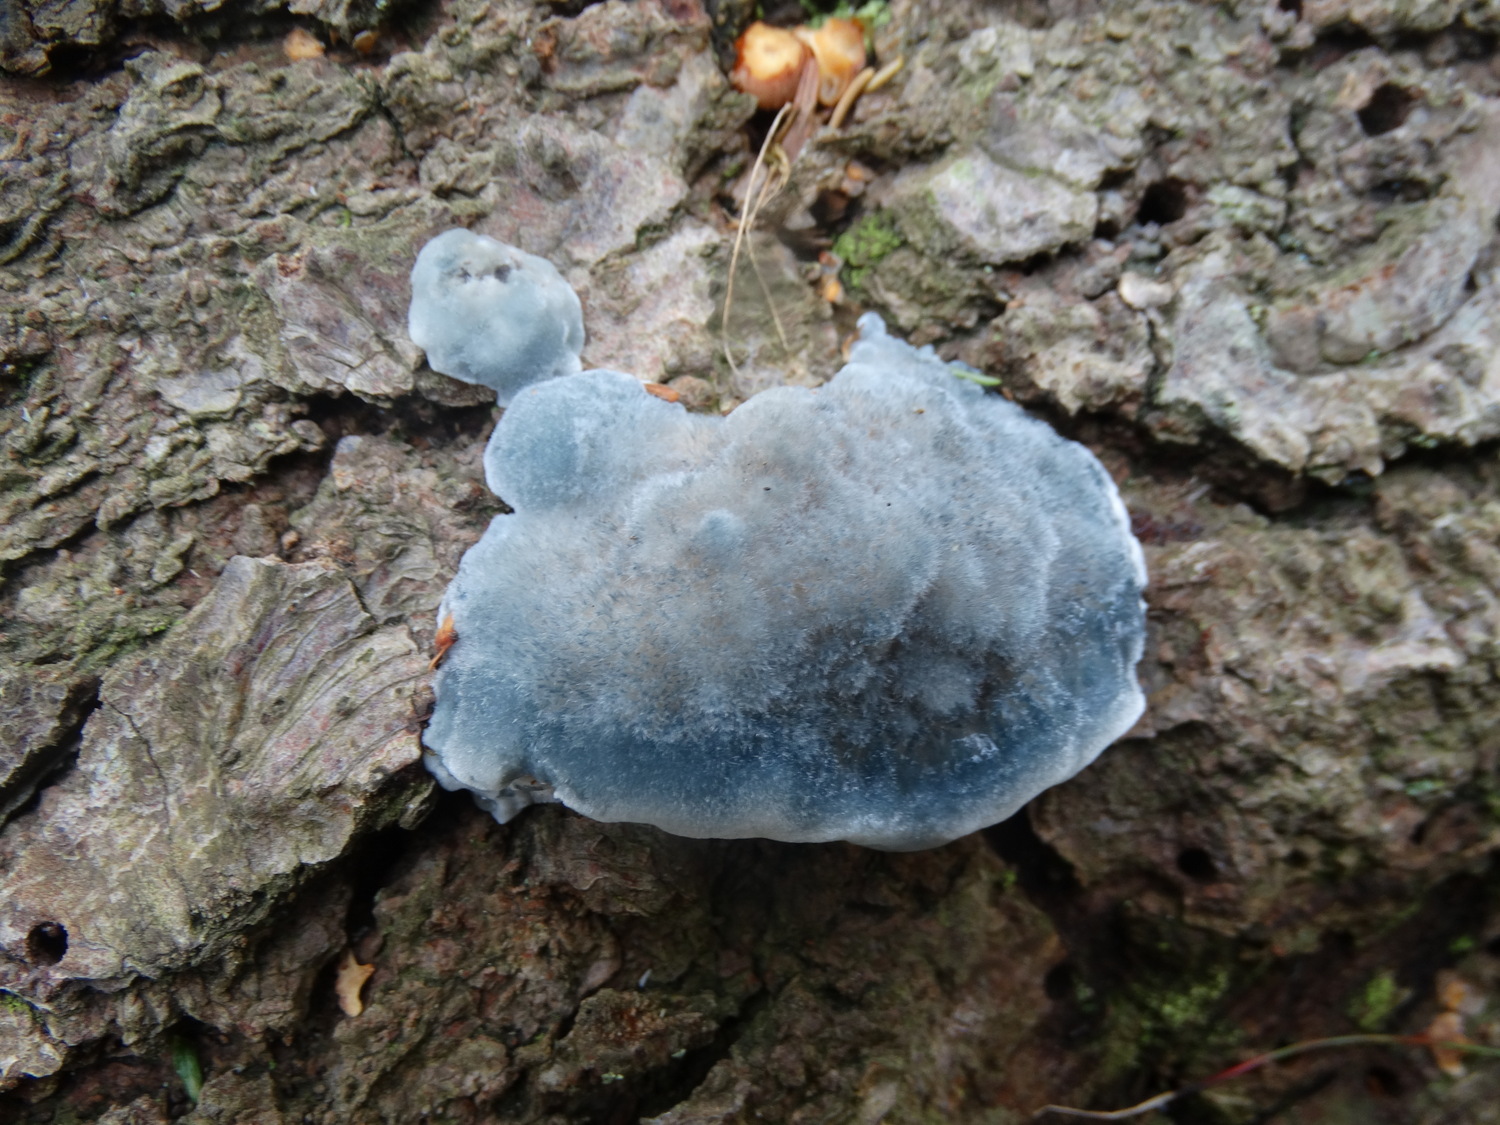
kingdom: Fungi
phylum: Basidiomycota
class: Agaricomycetes
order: Polyporales
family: Polyporaceae
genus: Cyanosporus
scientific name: Cyanosporus caesius
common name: blålig kødporesvamp
